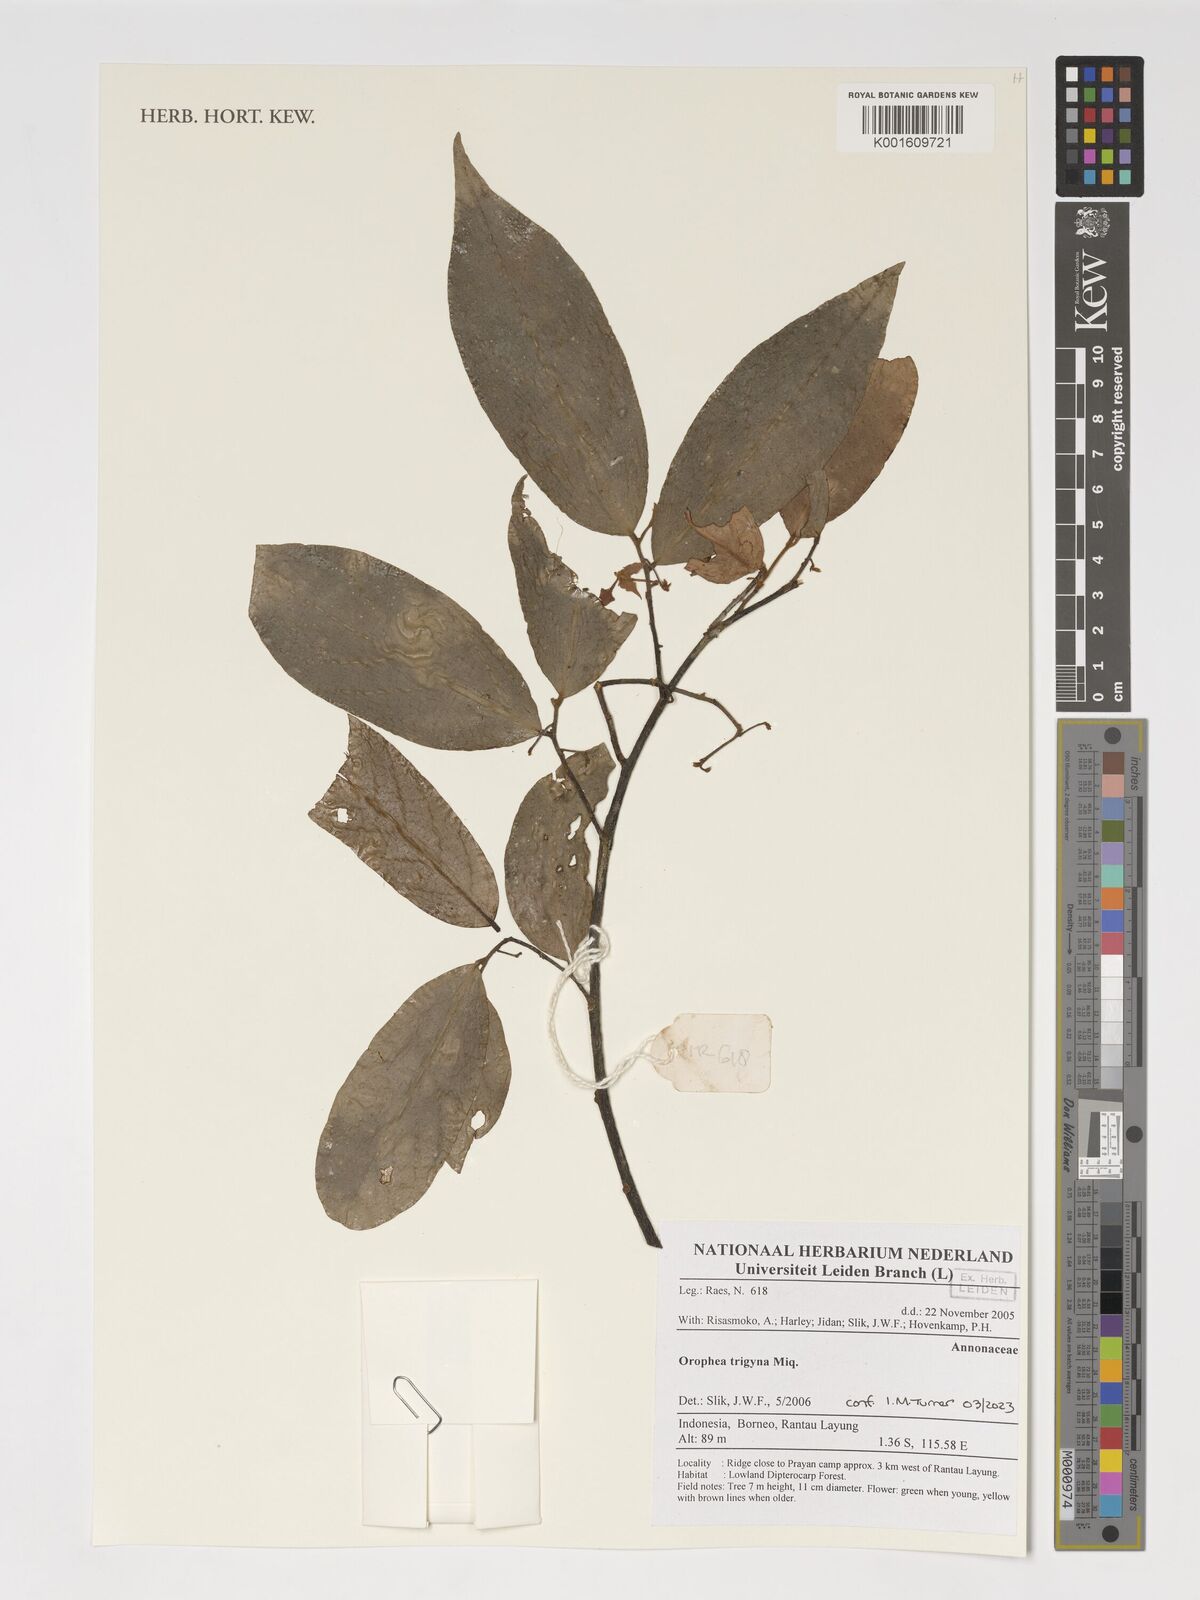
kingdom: Plantae
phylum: Tracheophyta
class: Magnoliopsida
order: Magnoliales
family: Annonaceae
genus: Orophea
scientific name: Orophea trigyna
